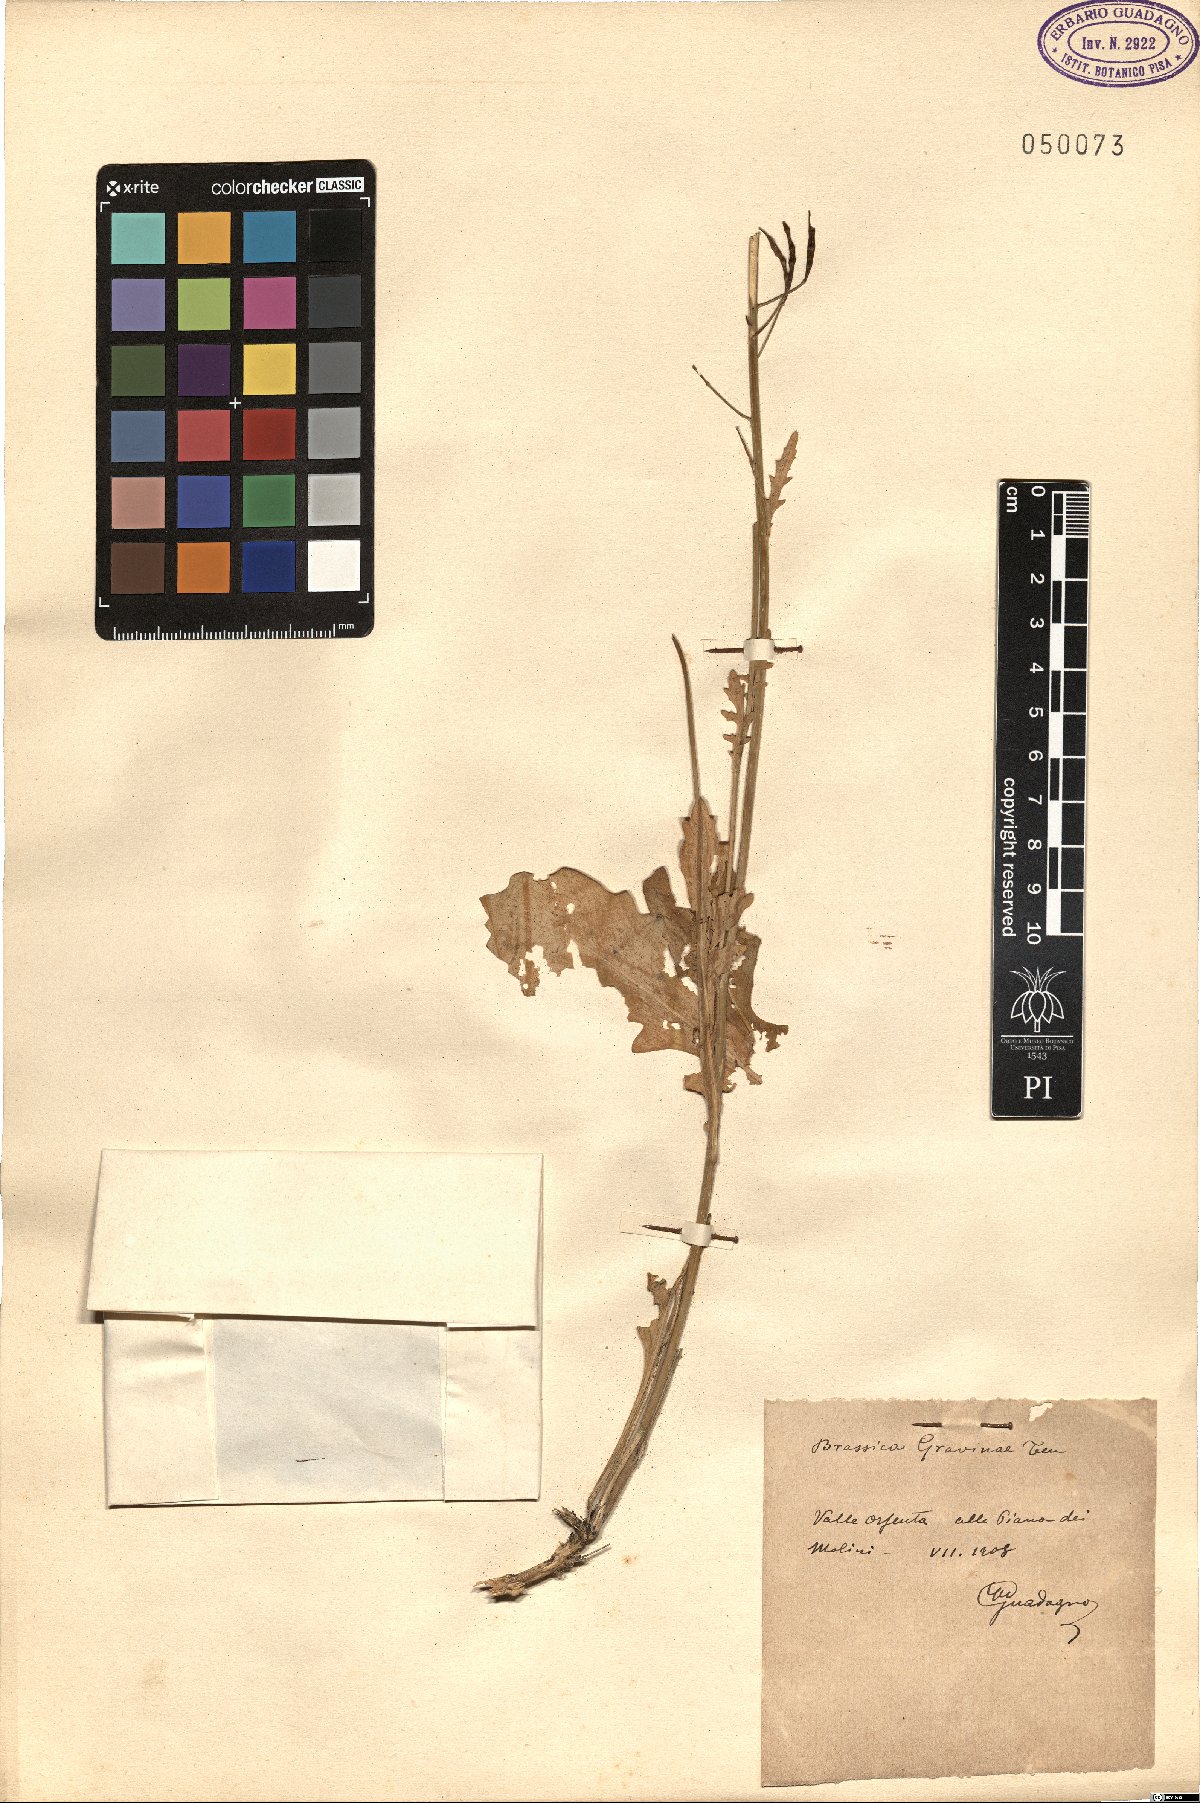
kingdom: Plantae
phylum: Tracheophyta
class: Magnoliopsida
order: Brassicales
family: Brassicaceae
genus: Brassica
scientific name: Brassica gravinae
